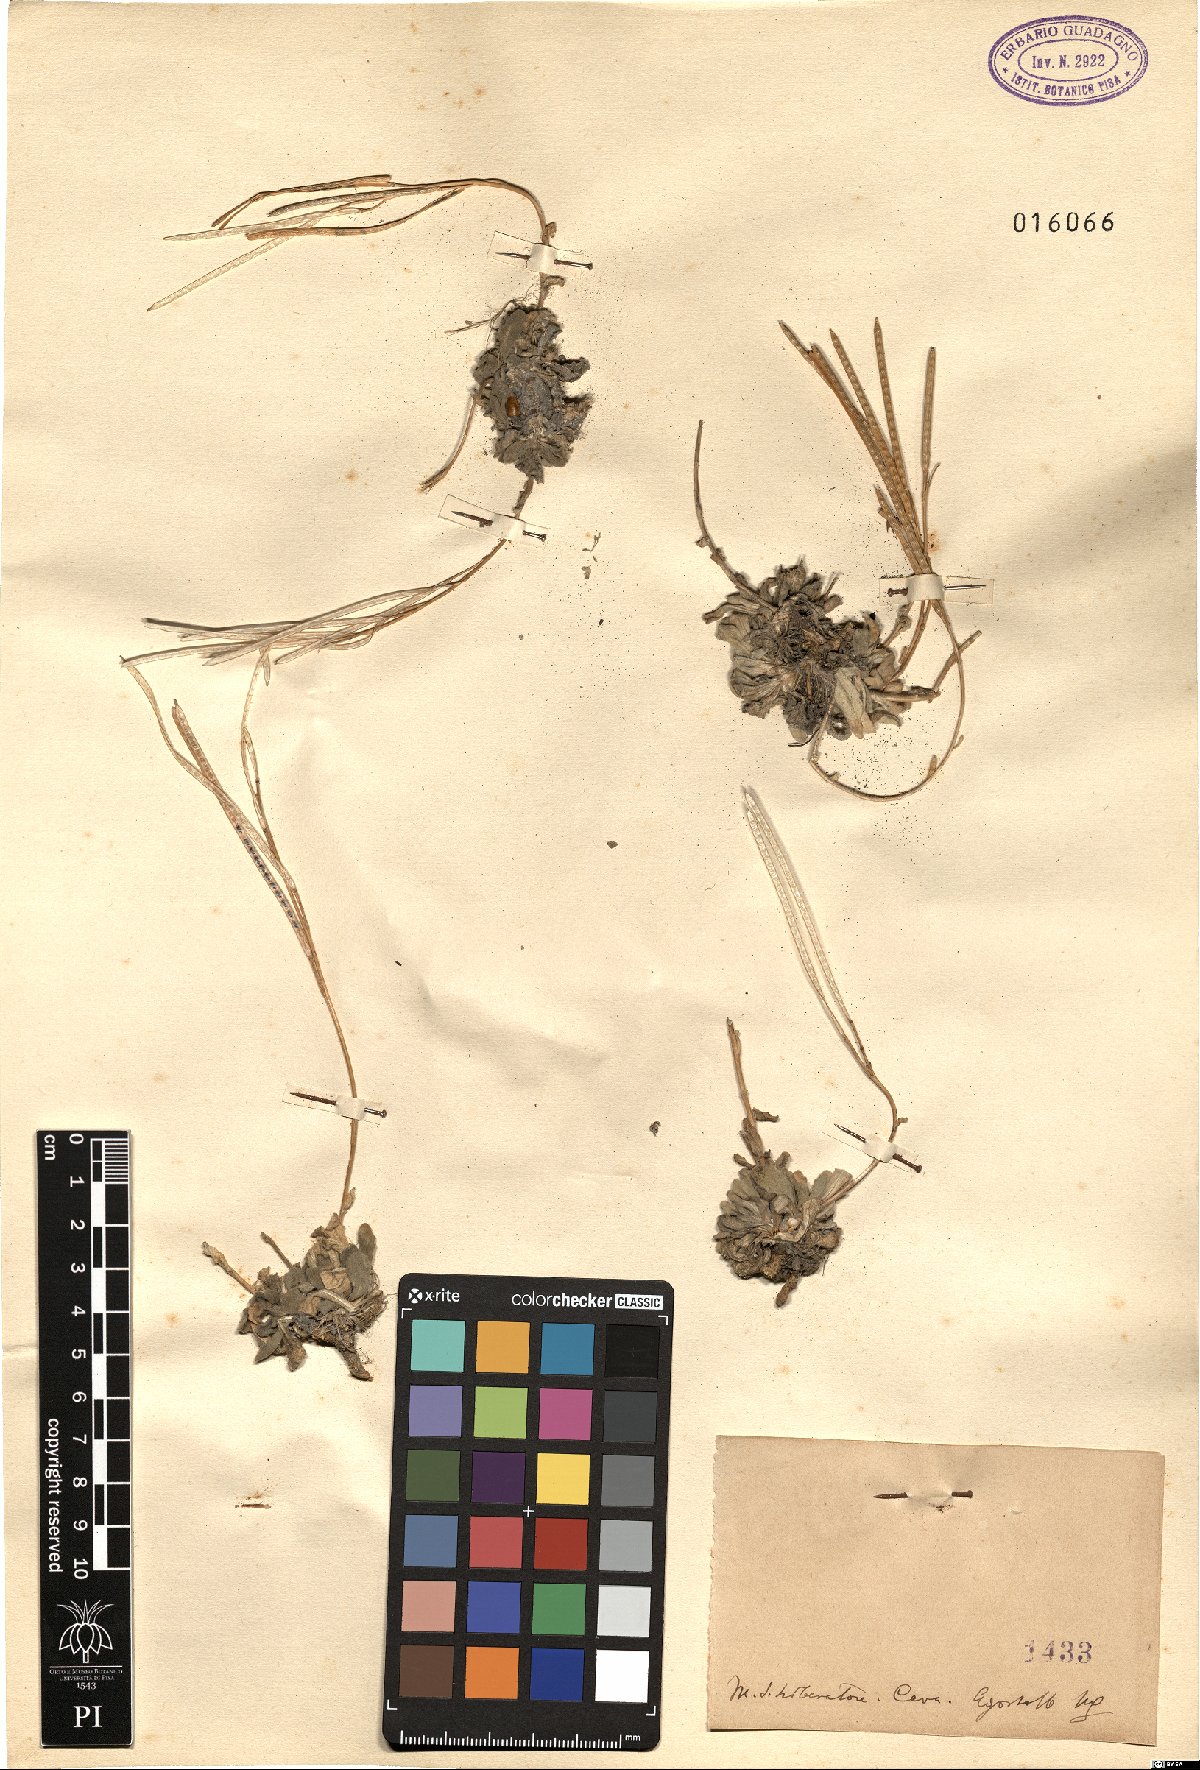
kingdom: Plantae
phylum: Tracheophyta
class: Magnoliopsida
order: Brassicales
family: Brassicaceae
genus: Arabis
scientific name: Arabis
